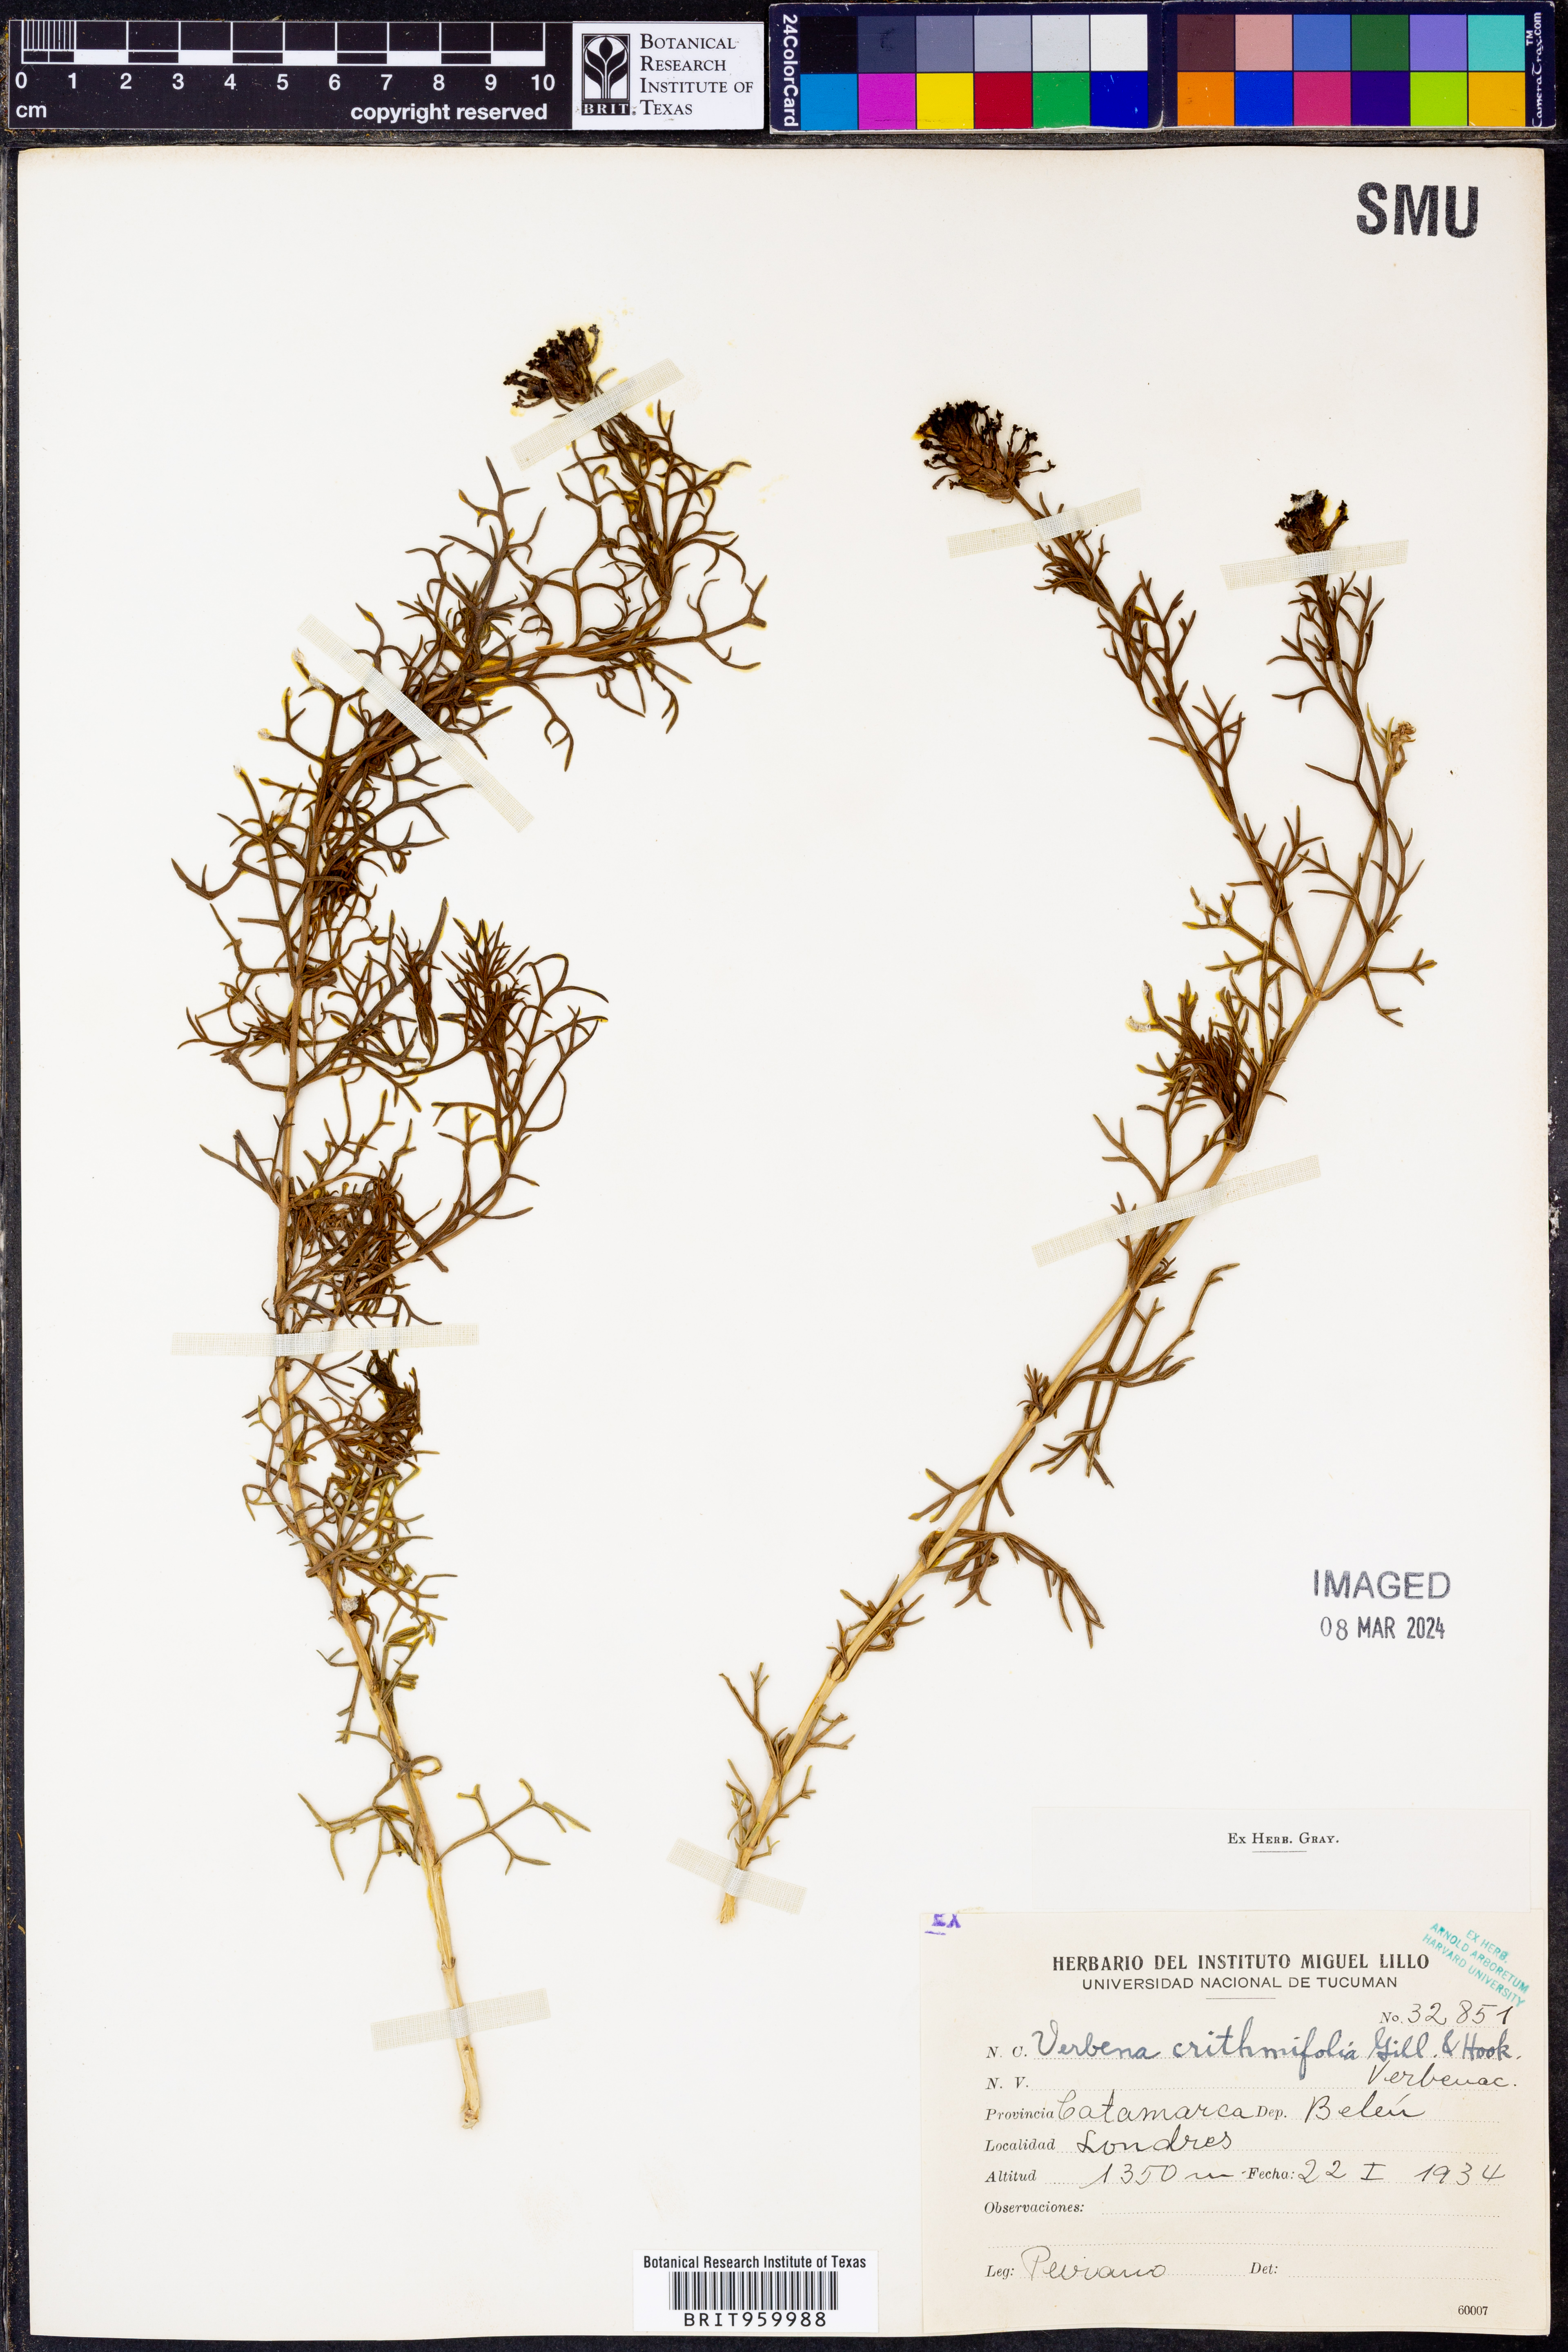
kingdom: Plantae
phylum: Tracheophyta
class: Magnoliopsida
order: Lamiales
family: Verbenaceae
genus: Verbena
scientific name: Verbena
